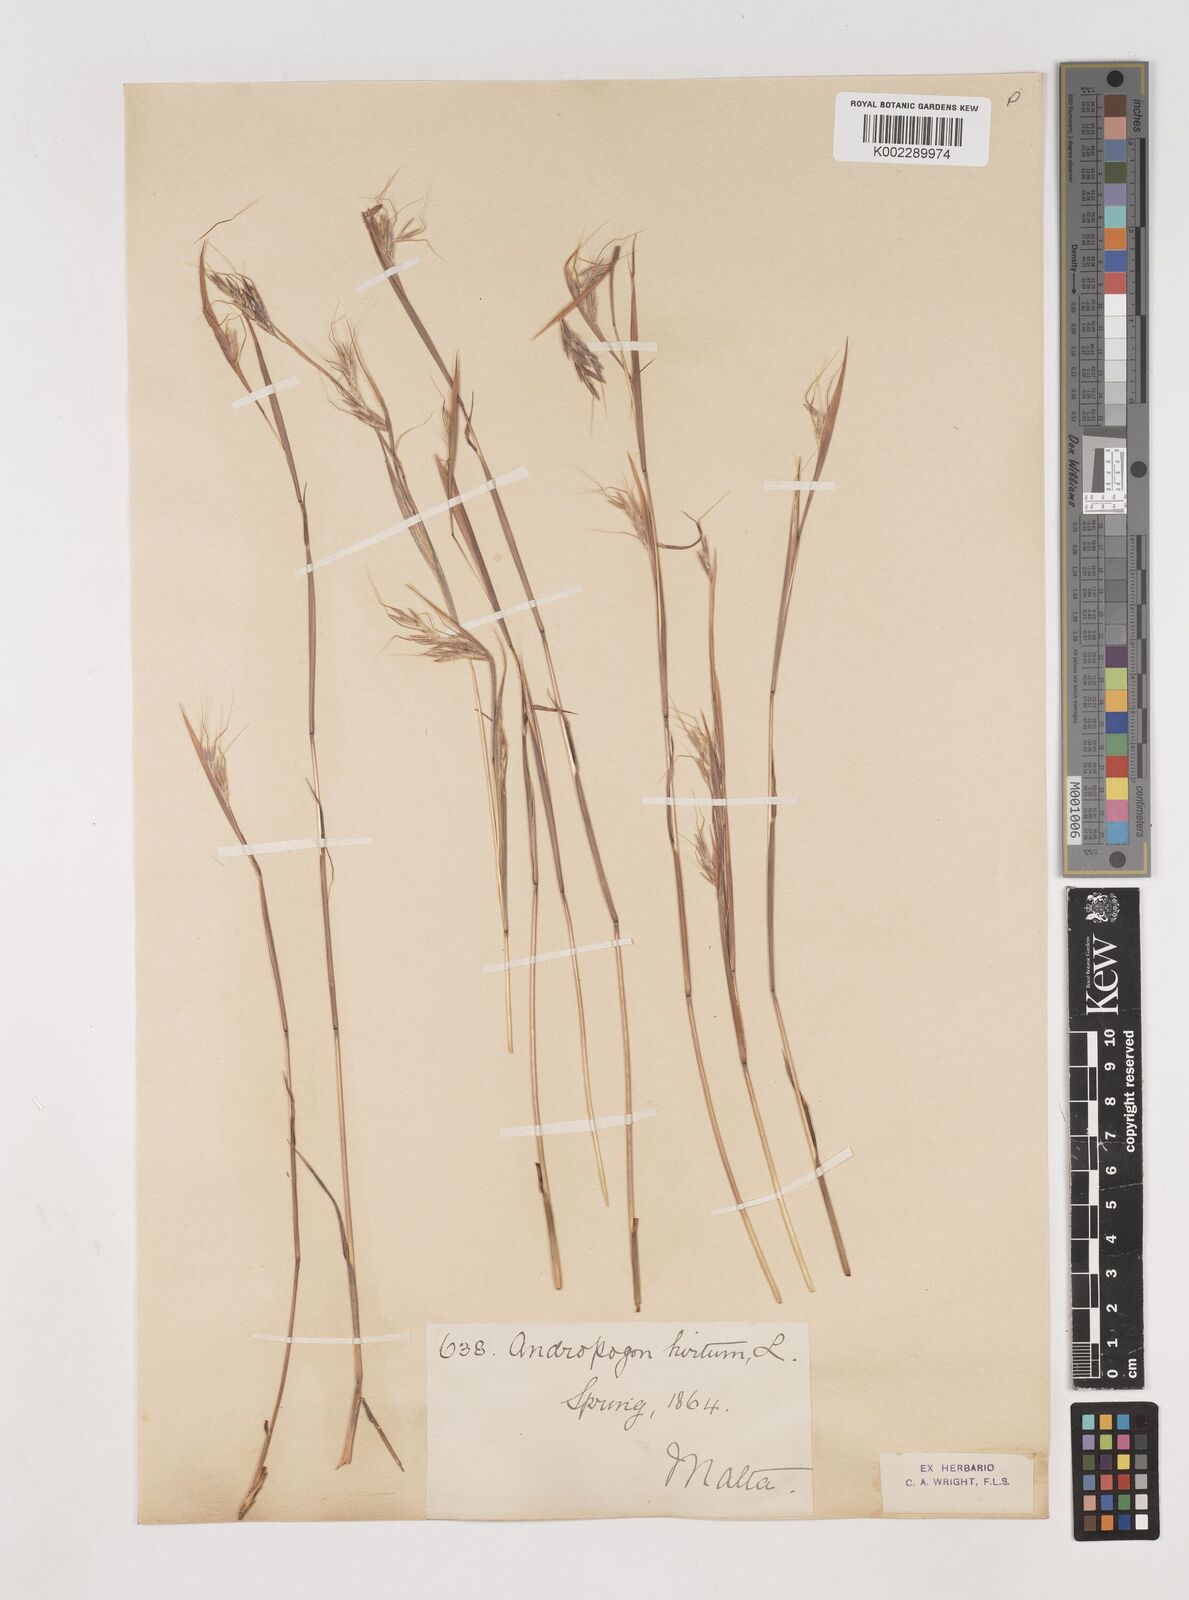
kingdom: Plantae
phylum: Tracheophyta
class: Liliopsida
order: Poales
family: Poaceae
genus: Hyparrhenia
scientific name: Hyparrhenia hirta
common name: Thatching grass
